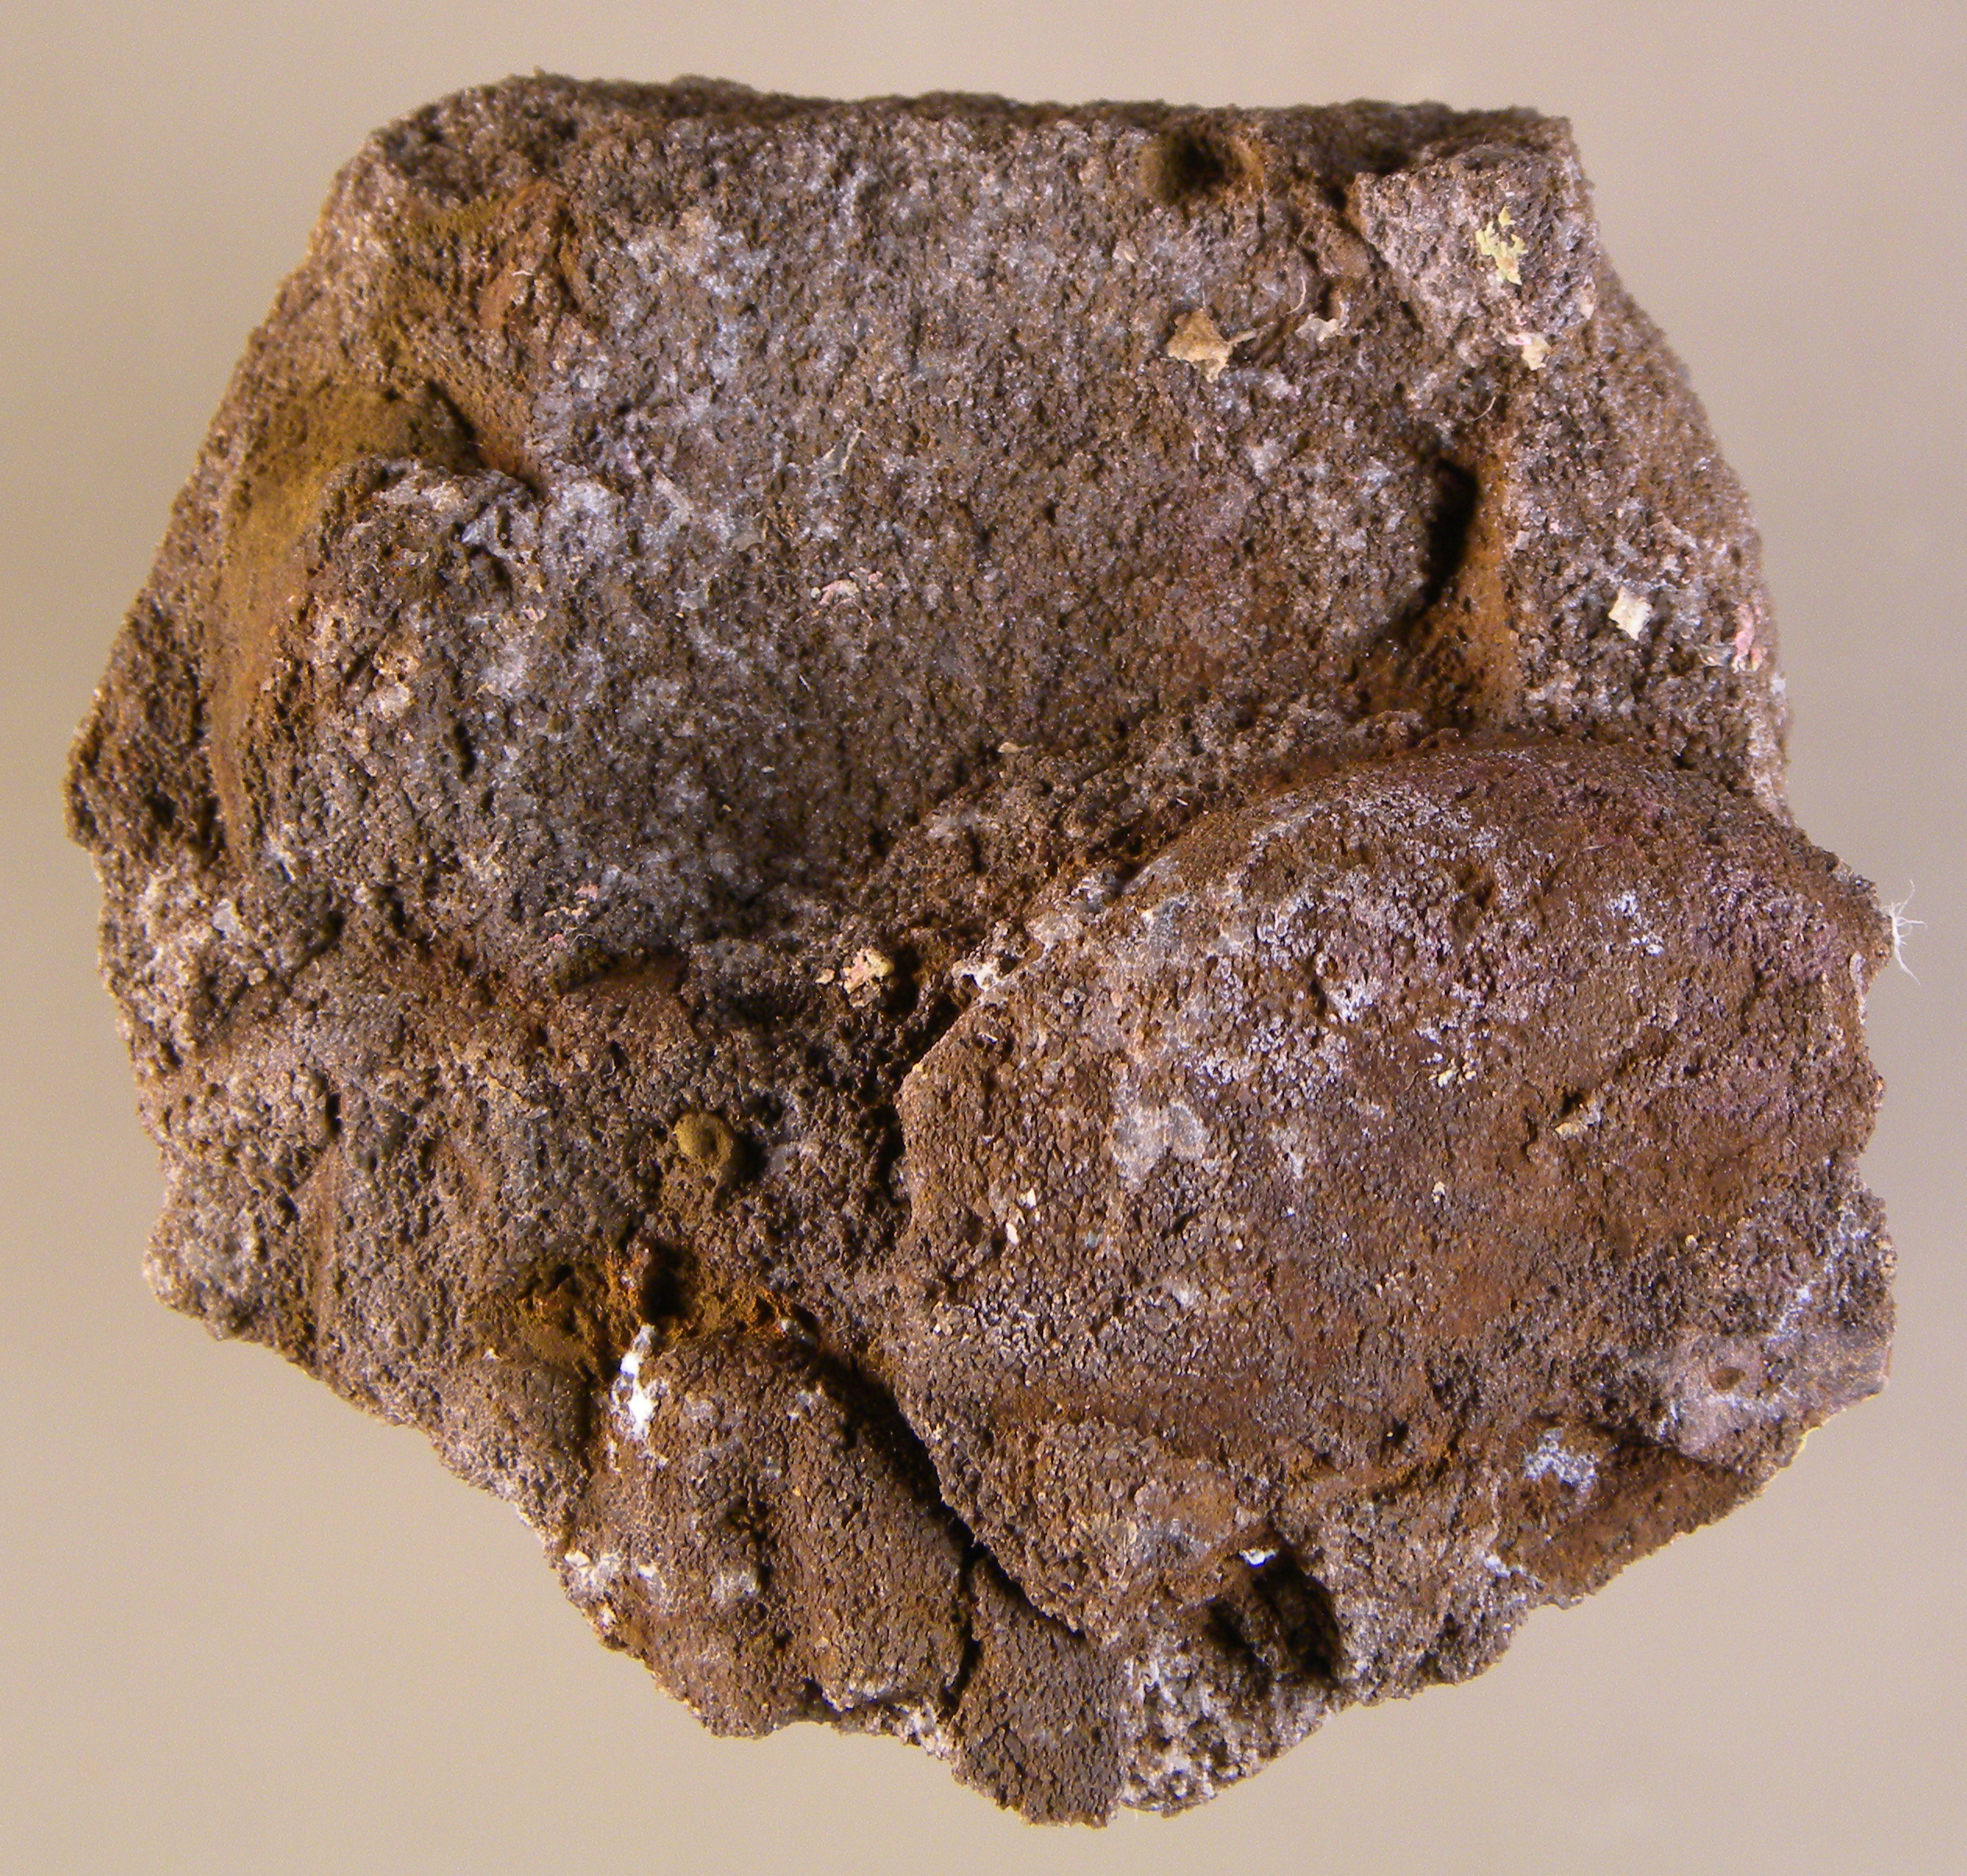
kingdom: Animalia
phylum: Mollusca
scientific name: Mollusca
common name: Mollusca
